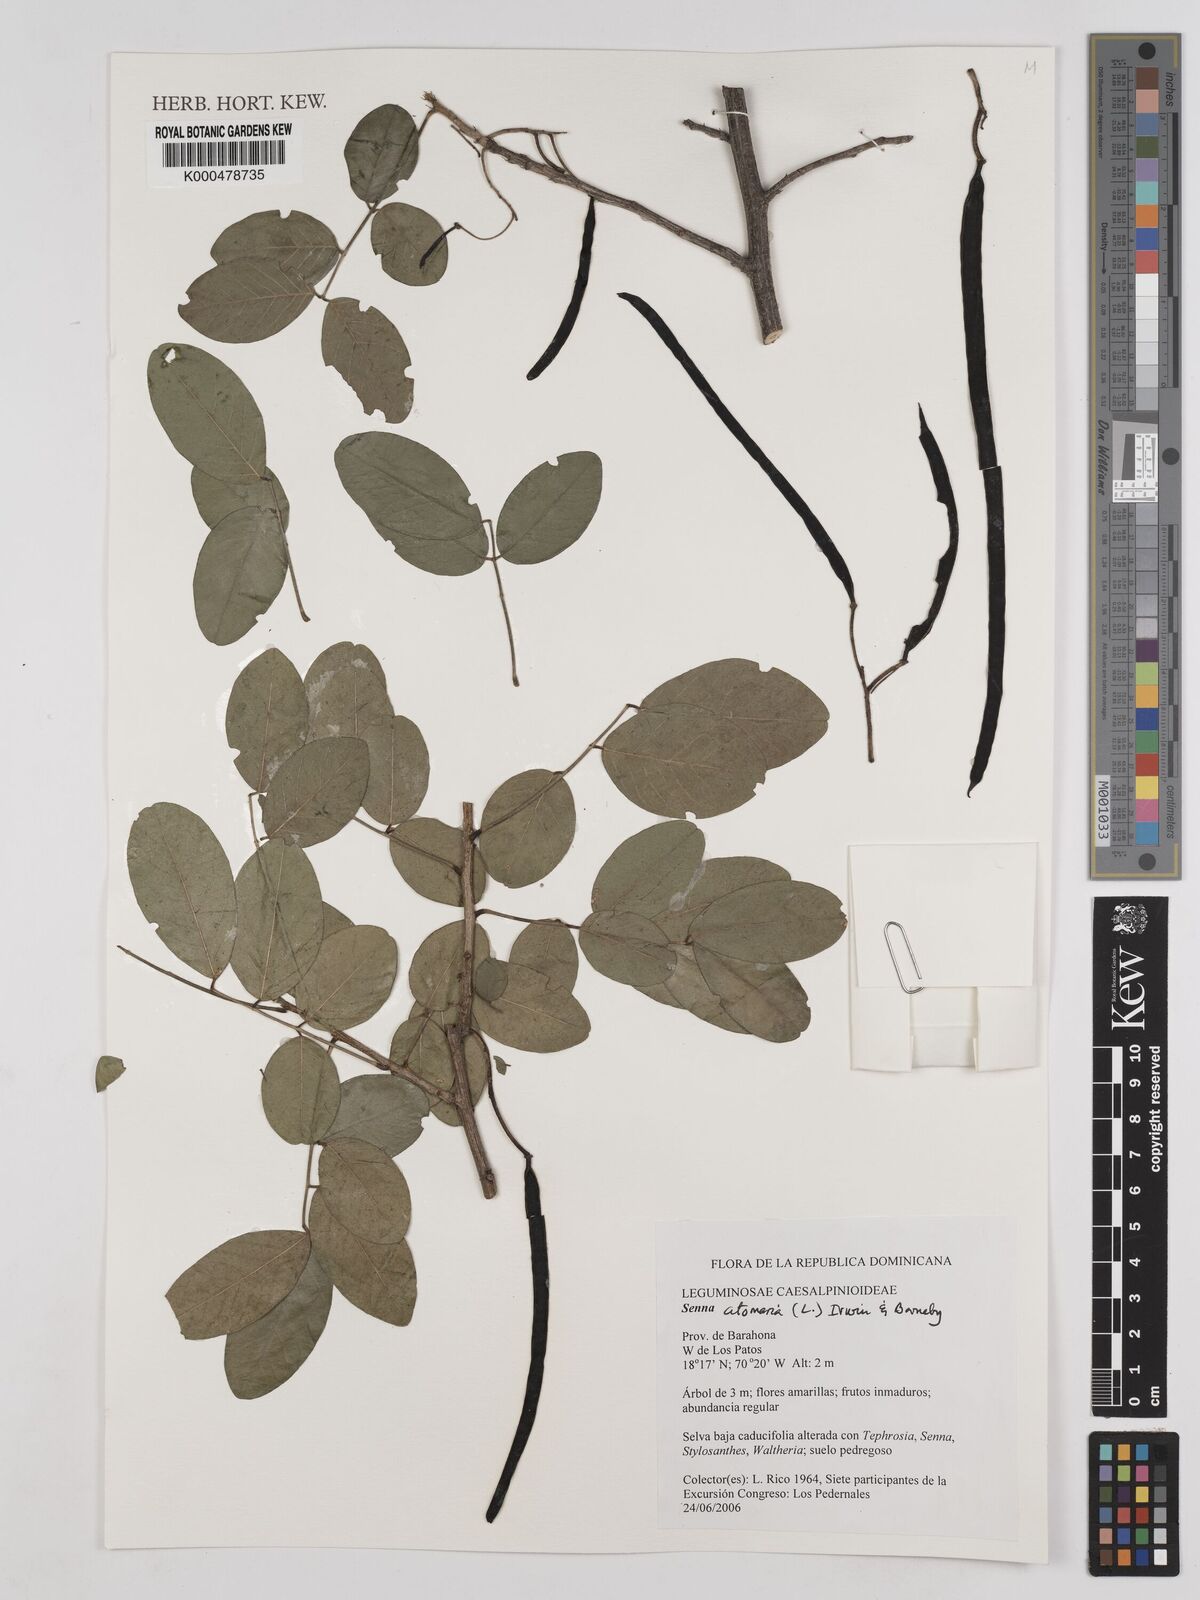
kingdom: Plantae
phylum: Tracheophyta
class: Magnoliopsida
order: Fabales
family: Fabaceae
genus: Senna
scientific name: Senna atomaria
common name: Flor de san jose
